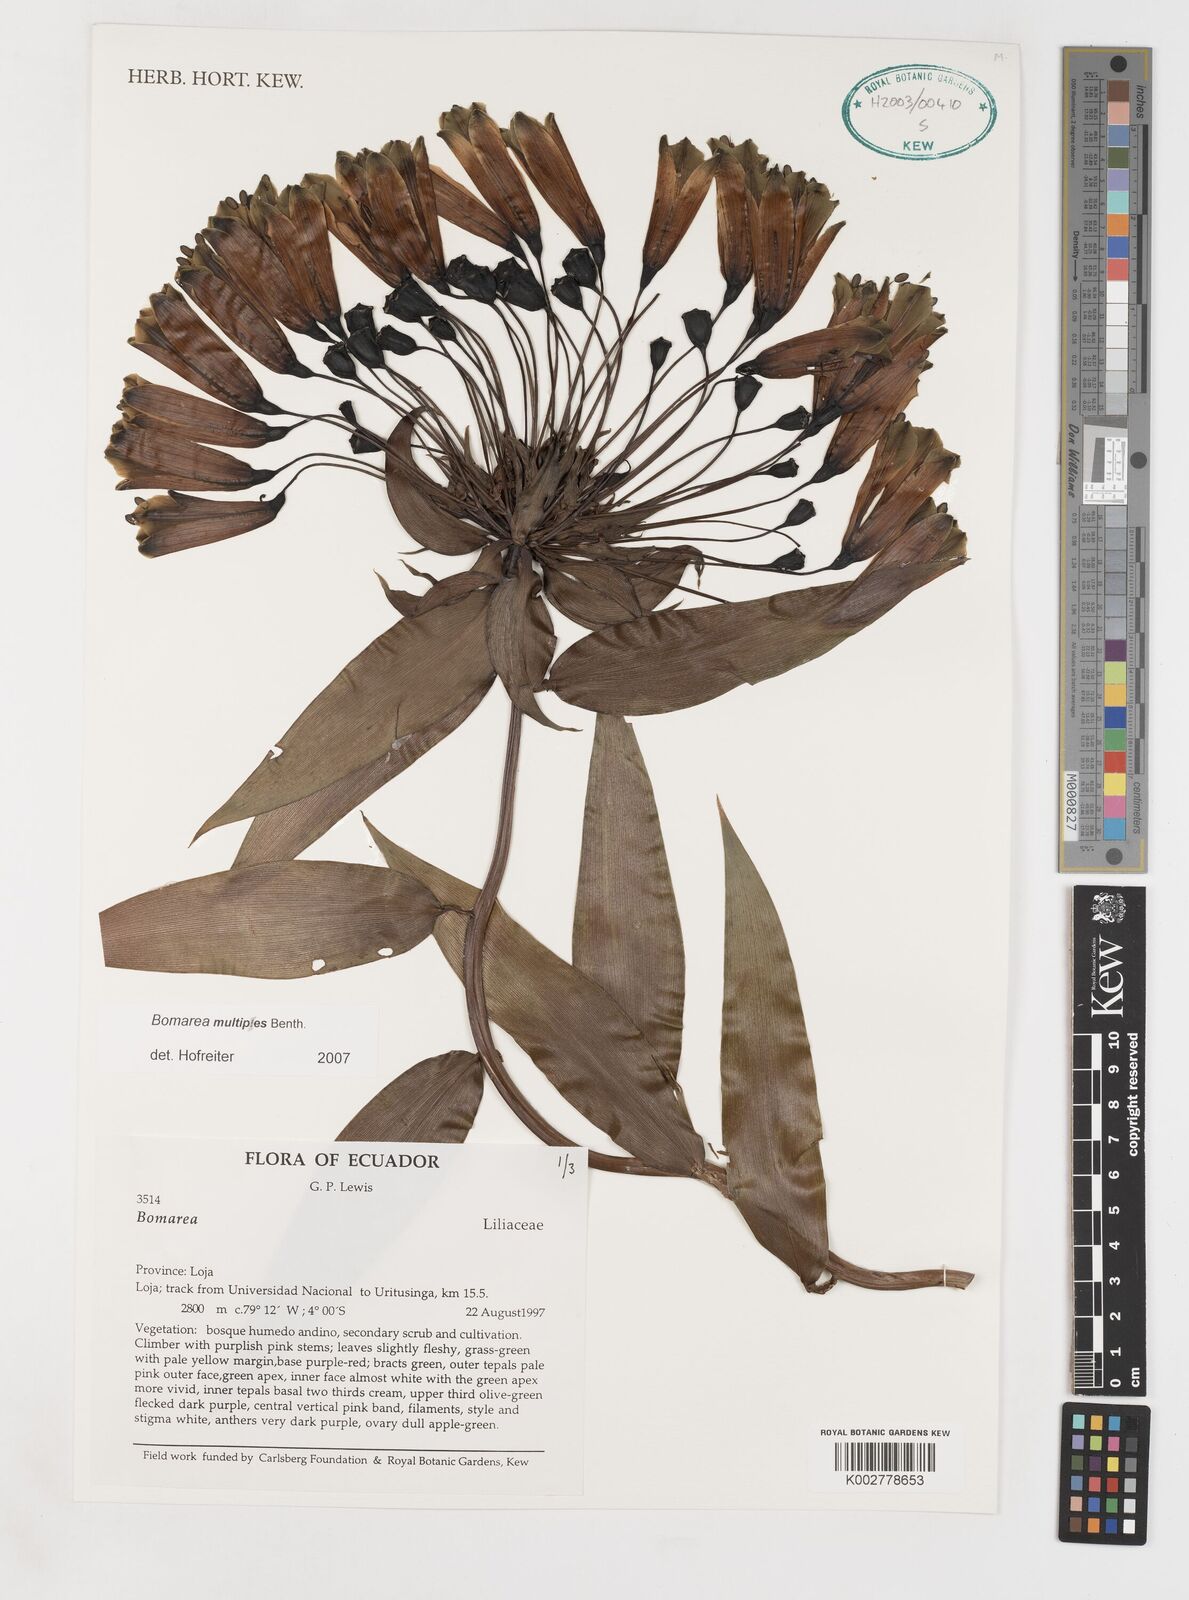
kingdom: Plantae
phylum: Tracheophyta
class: Liliopsida
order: Liliales
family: Alstroemeriaceae
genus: Bomarea
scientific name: Bomarea multipes
